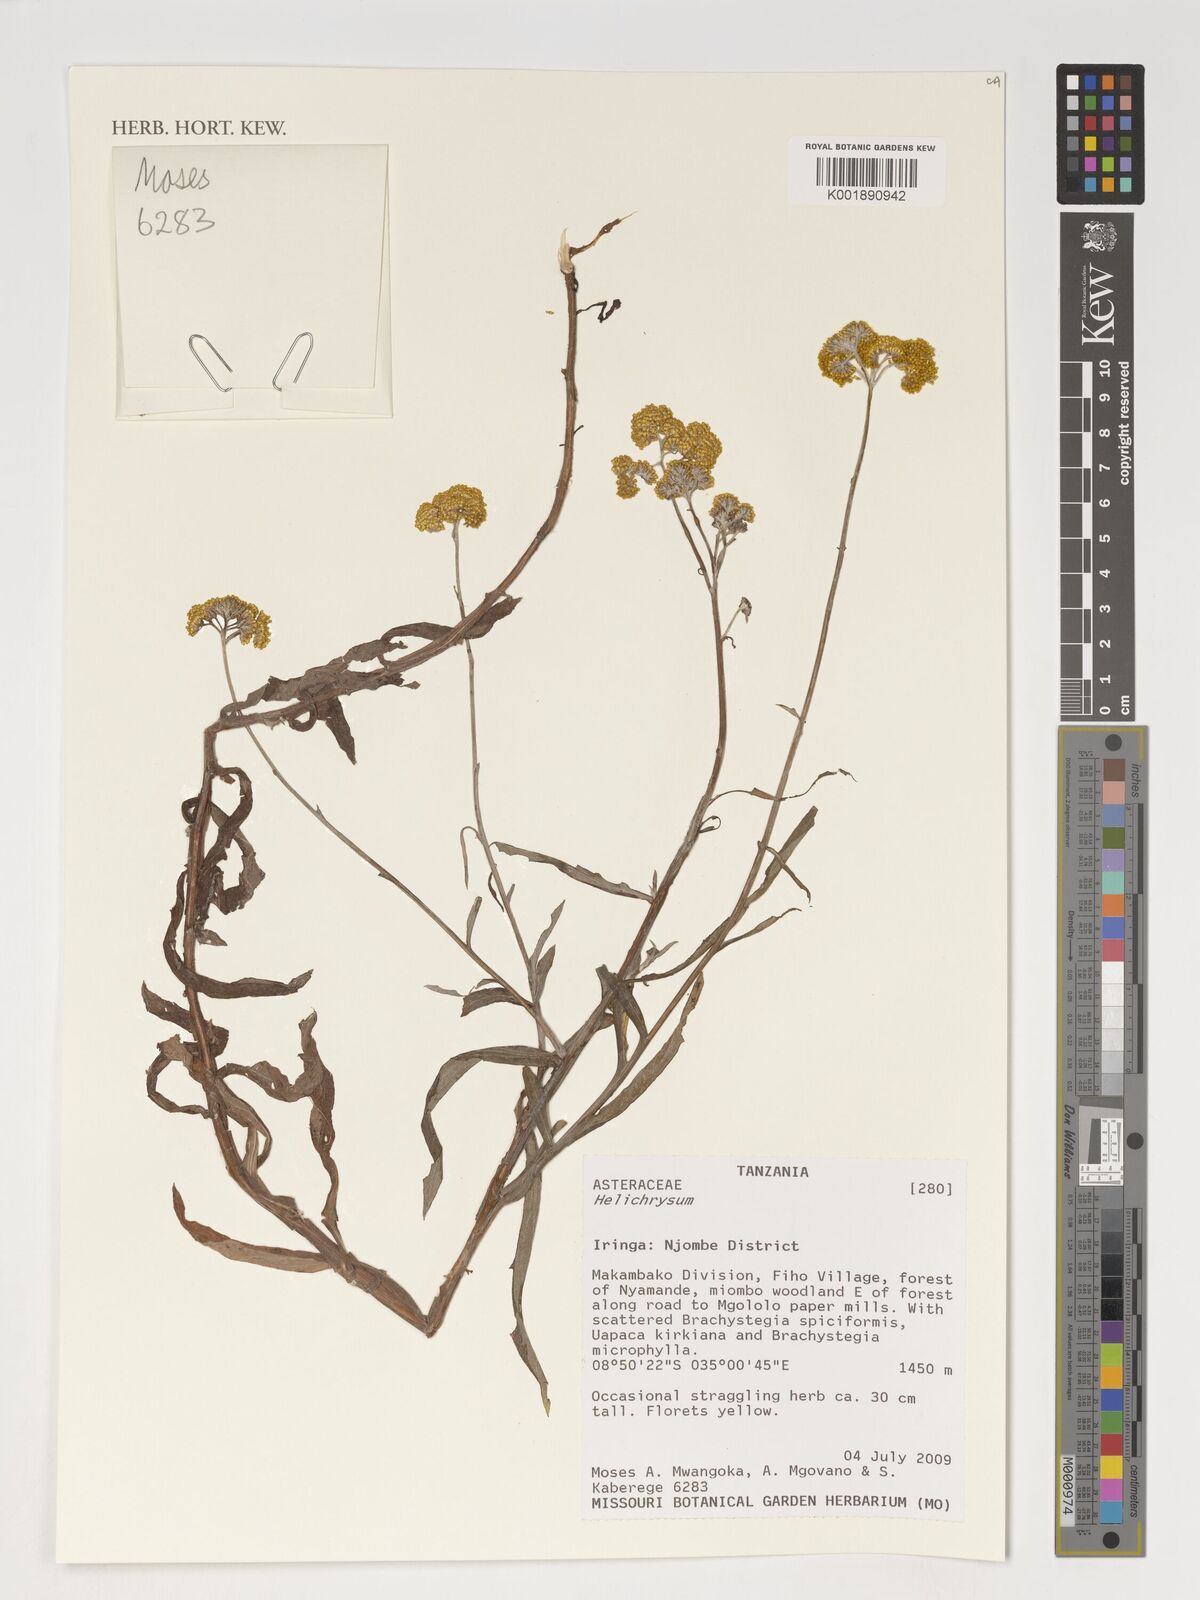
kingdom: Plantae
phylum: Tracheophyta
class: Magnoliopsida
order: Asterales
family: Asteraceae
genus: Helichrysum
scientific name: Helichrysum
